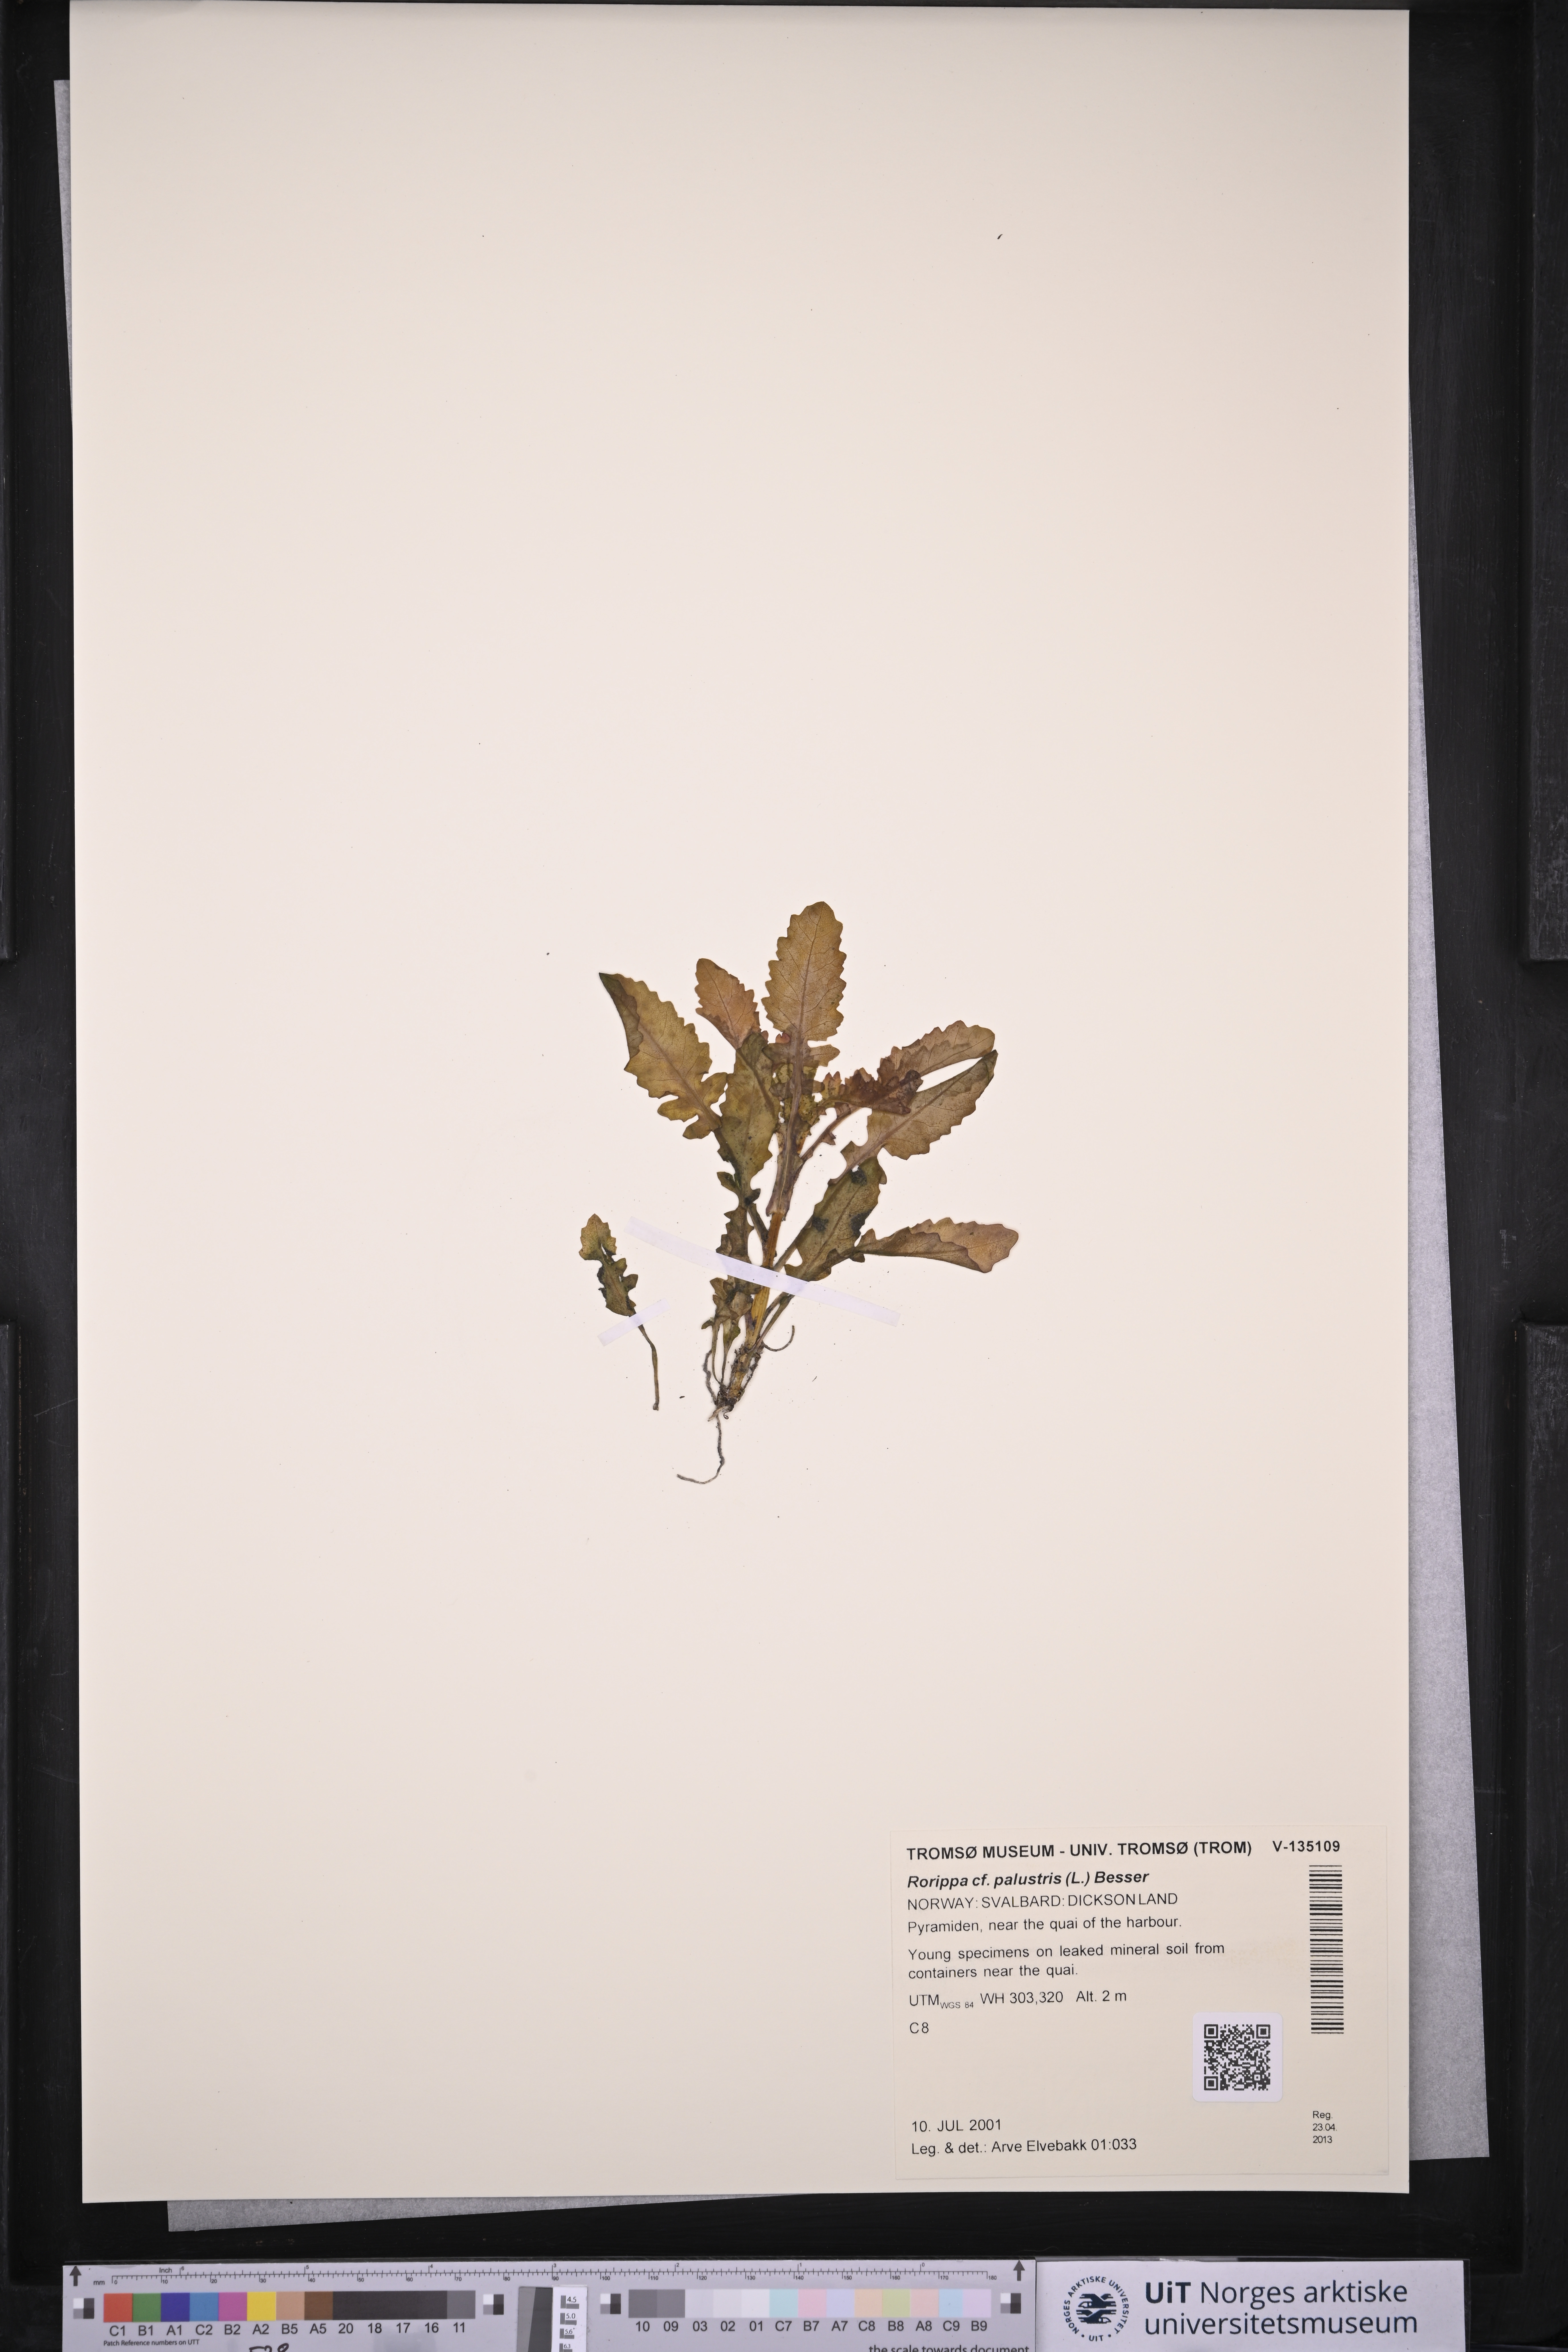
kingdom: Plantae
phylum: Tracheophyta
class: Magnoliopsida
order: Brassicales
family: Brassicaceae
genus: Rorippa
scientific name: Rorippa palustris
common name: Marsh yellow-cress
